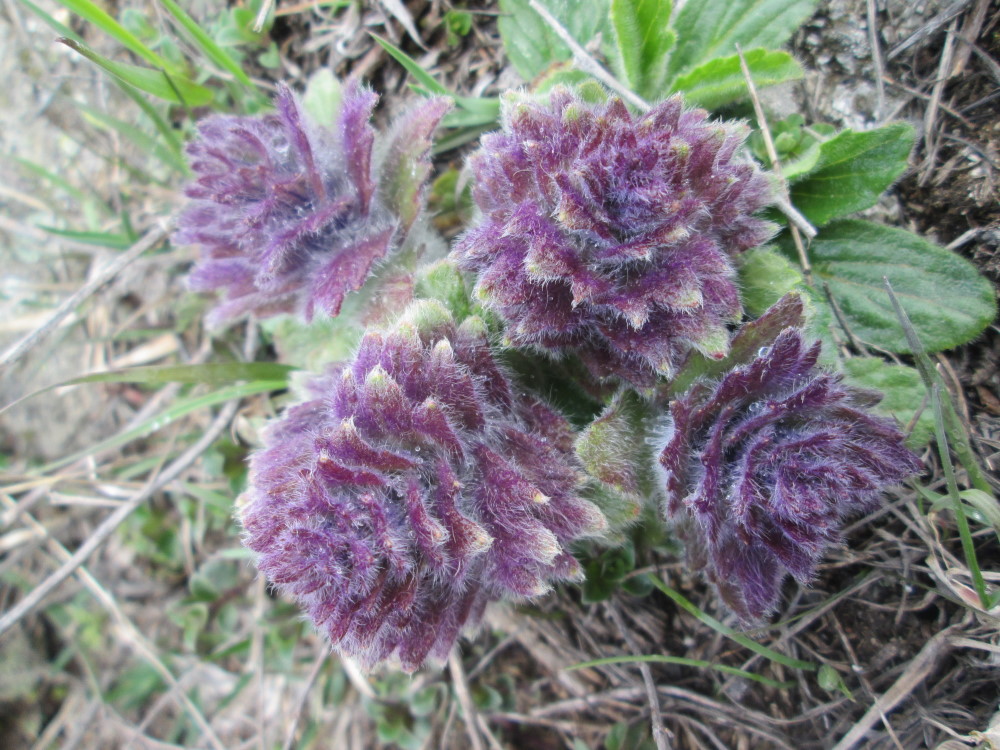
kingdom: Plantae
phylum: Tracheophyta
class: Magnoliopsida
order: Lamiales
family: Lamiaceae
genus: Ajuga
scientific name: Ajuga orientalis
